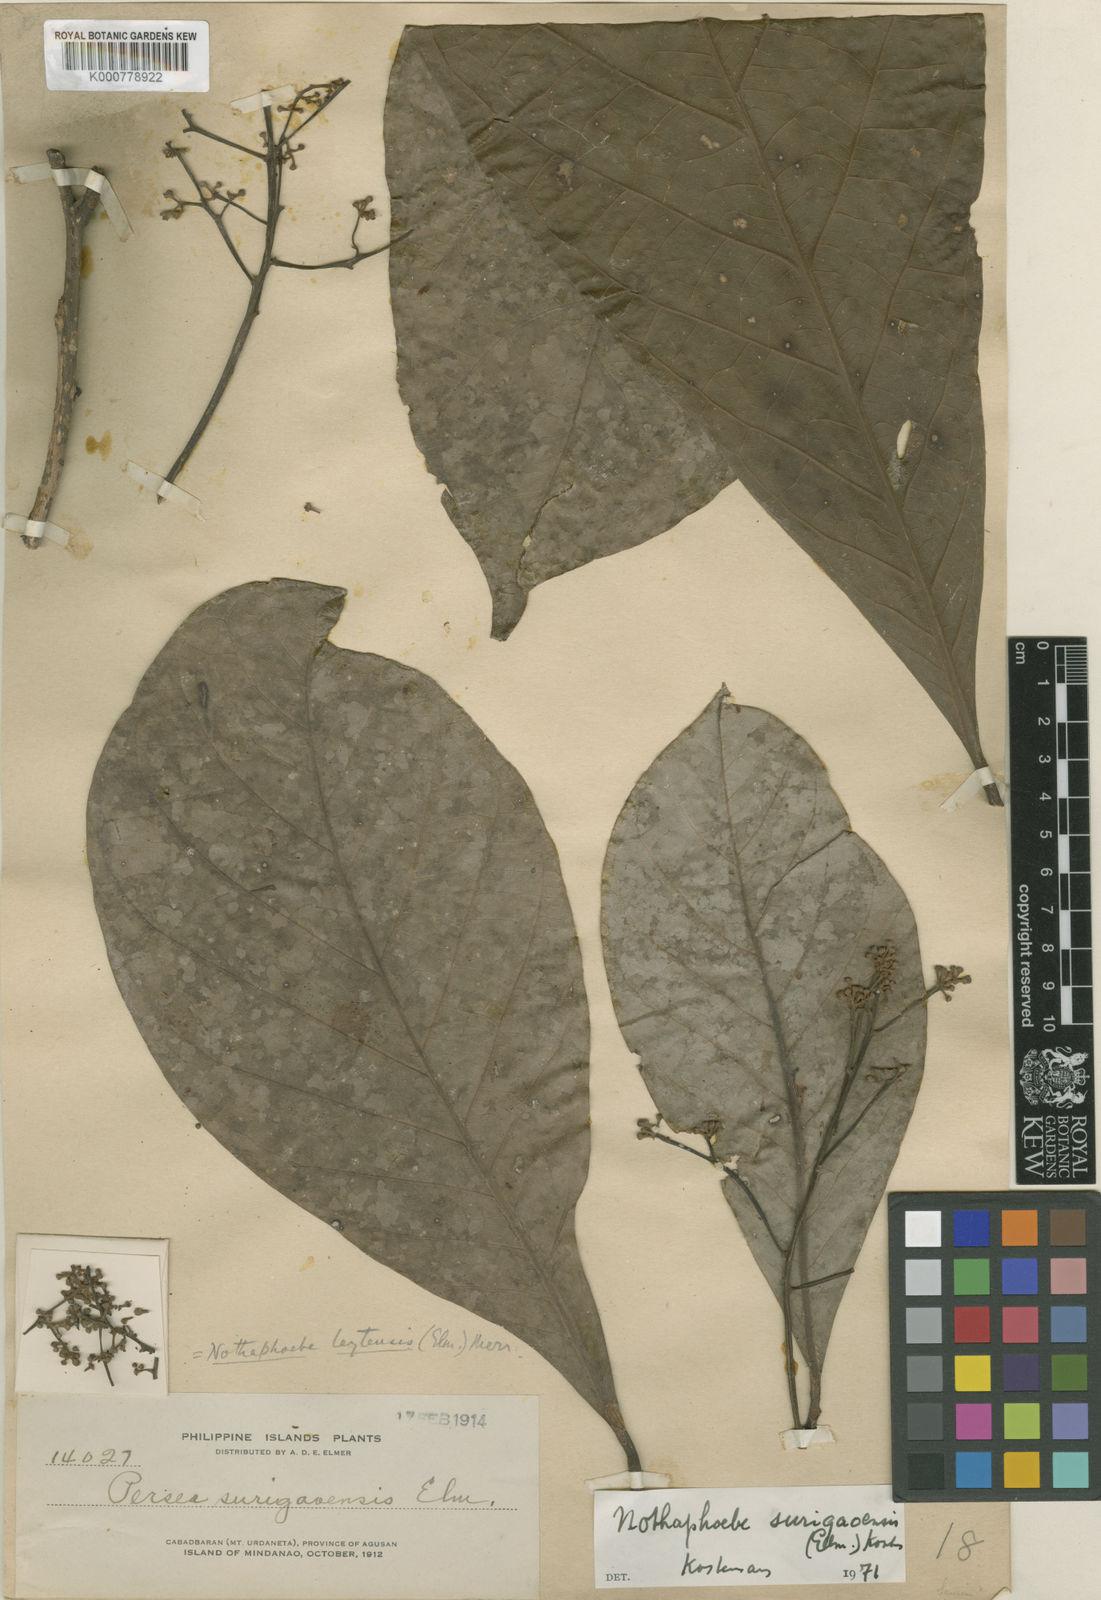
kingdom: Plantae
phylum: Tracheophyta
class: Magnoliopsida
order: Laurales
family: Lauraceae
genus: Nothaphoebe
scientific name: Nothaphoebe
